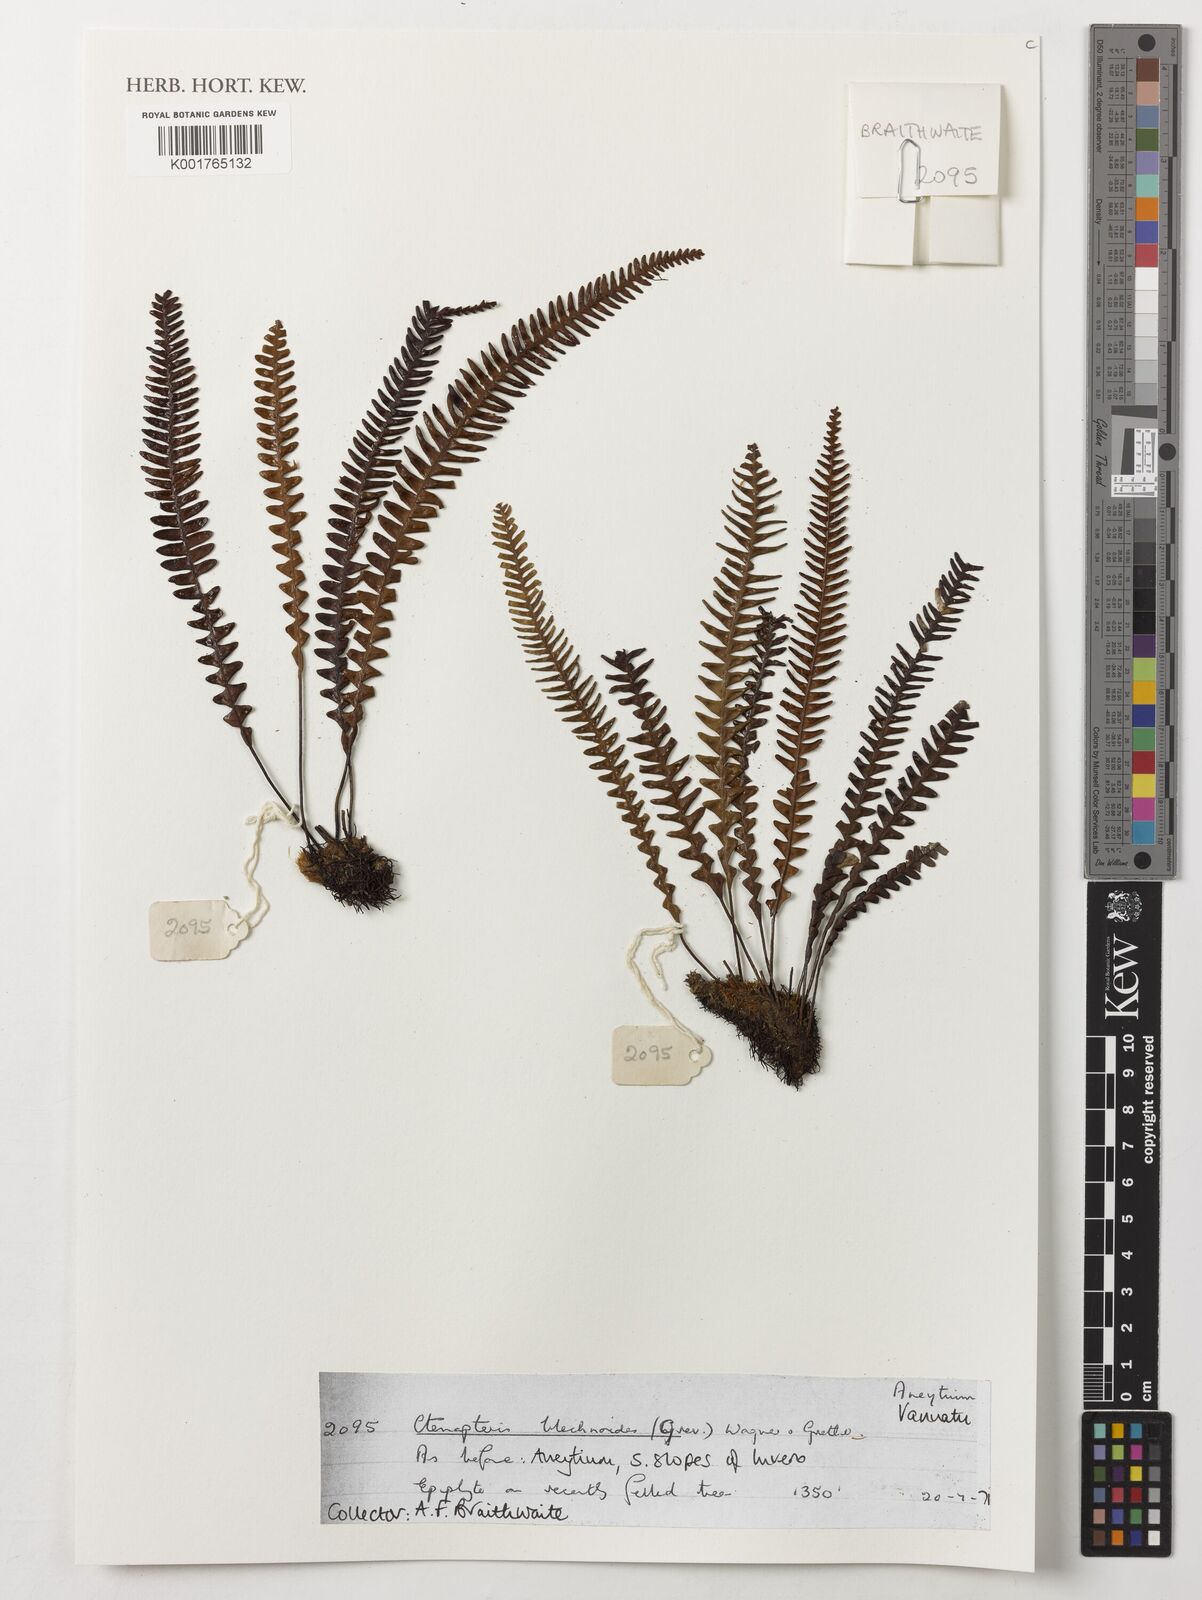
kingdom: Plantae
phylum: Tracheophyta
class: Polypodiopsida
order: Polypodiales
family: Polypodiaceae
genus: Ctenopterella
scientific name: Ctenopterella blechnoides
